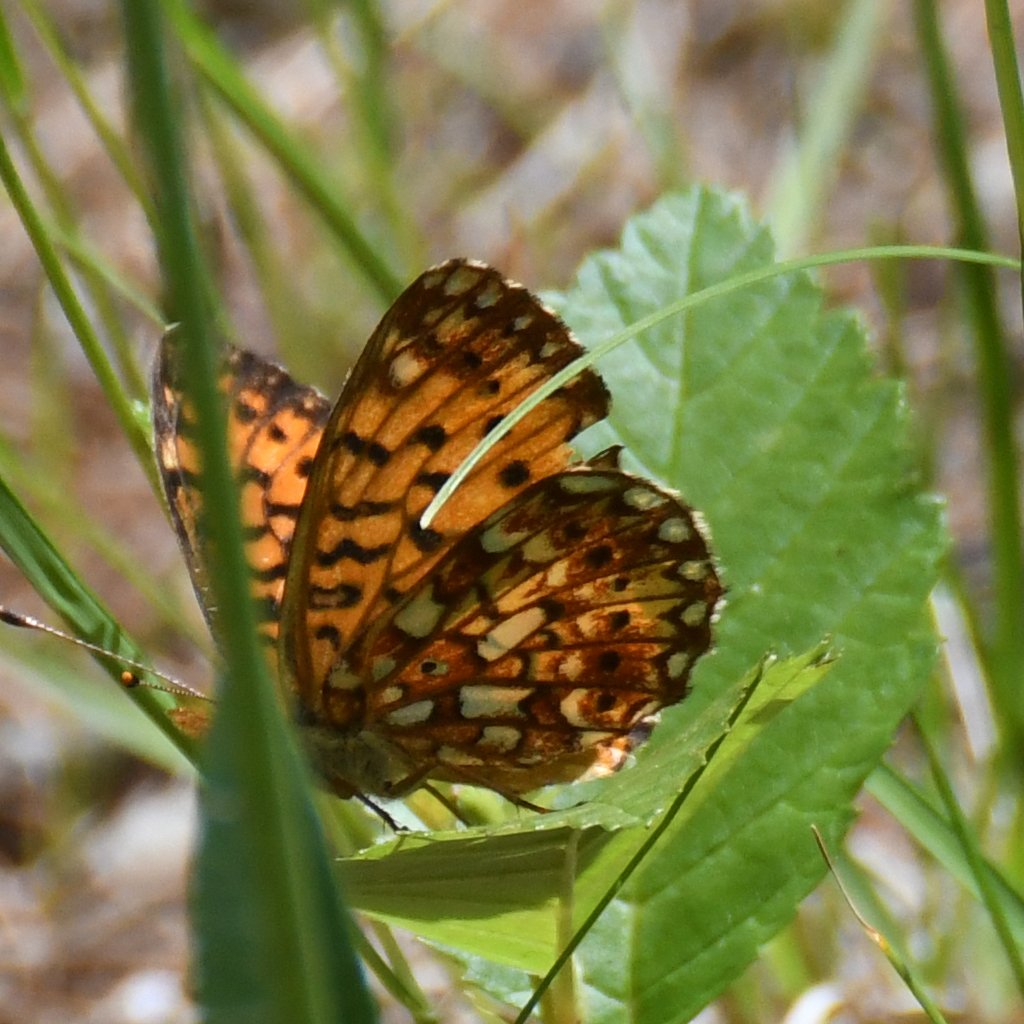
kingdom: Animalia
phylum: Arthropoda
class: Insecta
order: Lepidoptera
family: Nymphalidae
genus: Boloria
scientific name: Boloria selene
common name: Silver-bordered Fritillary
